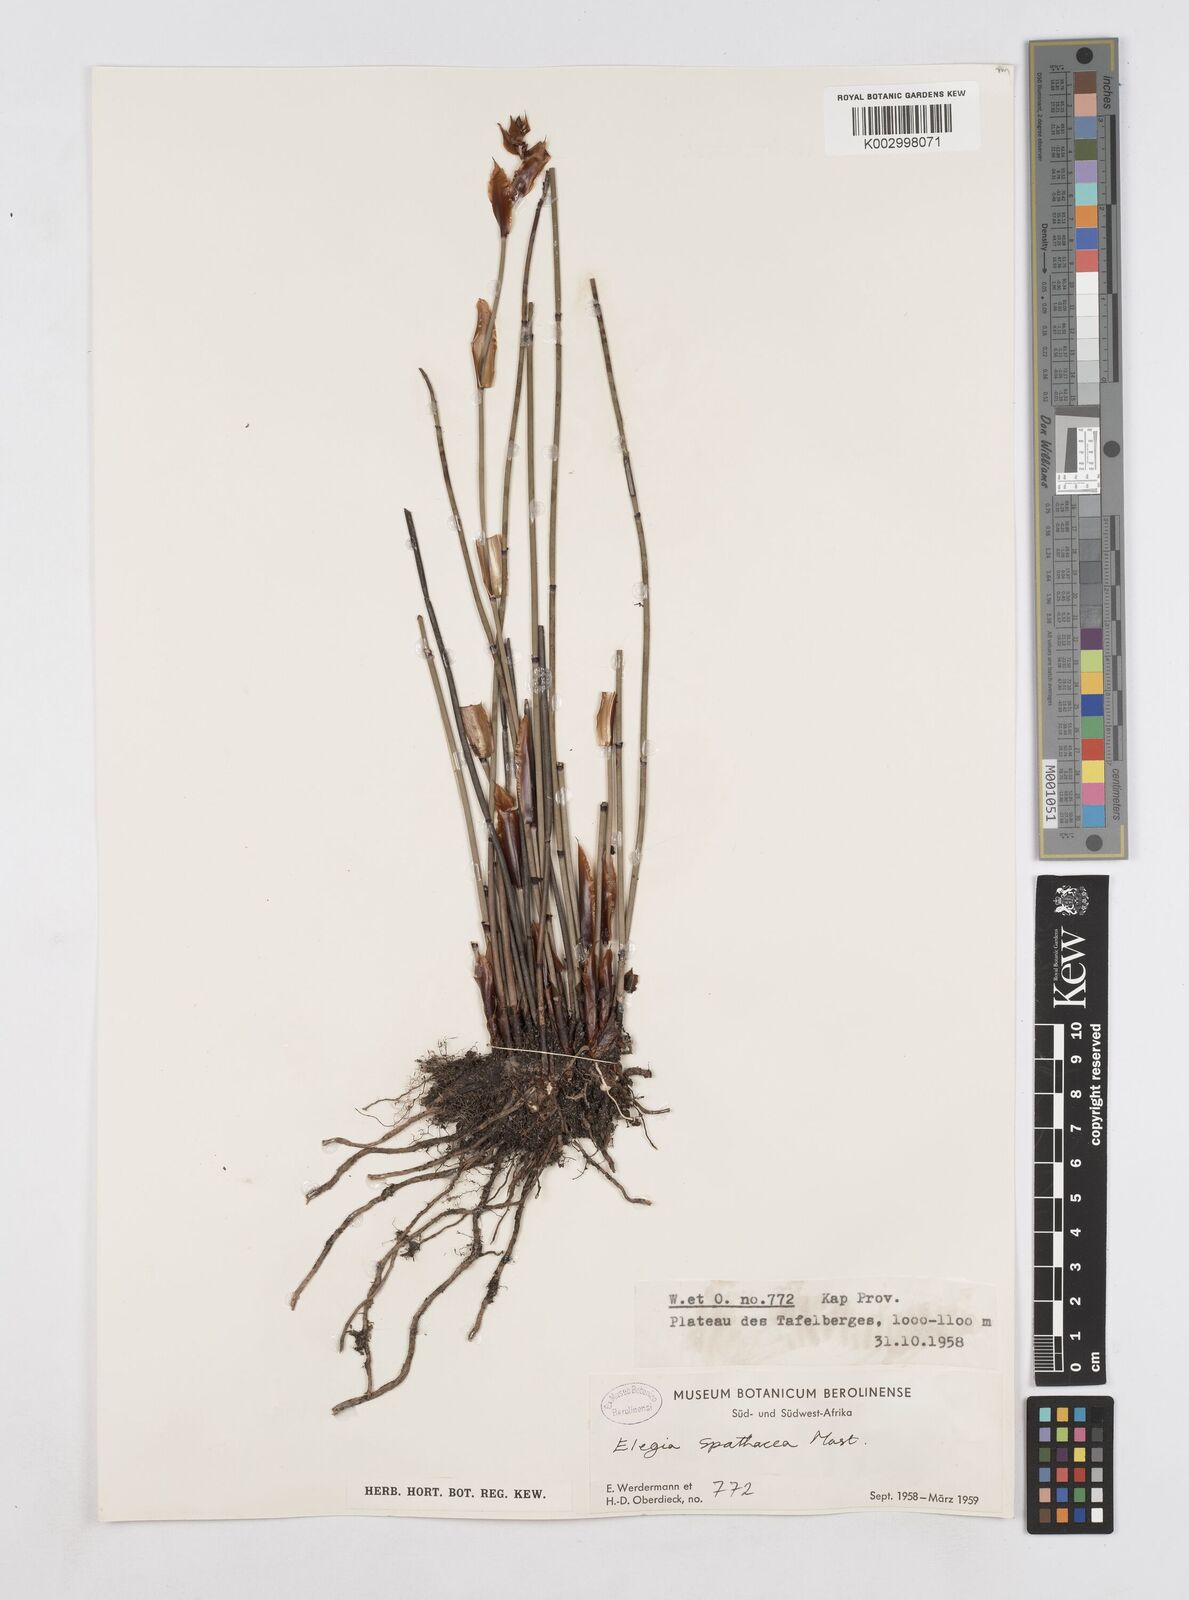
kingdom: Plantae
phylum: Tracheophyta
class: Liliopsida
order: Poales
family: Restionaceae
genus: Elegia
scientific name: Elegia
